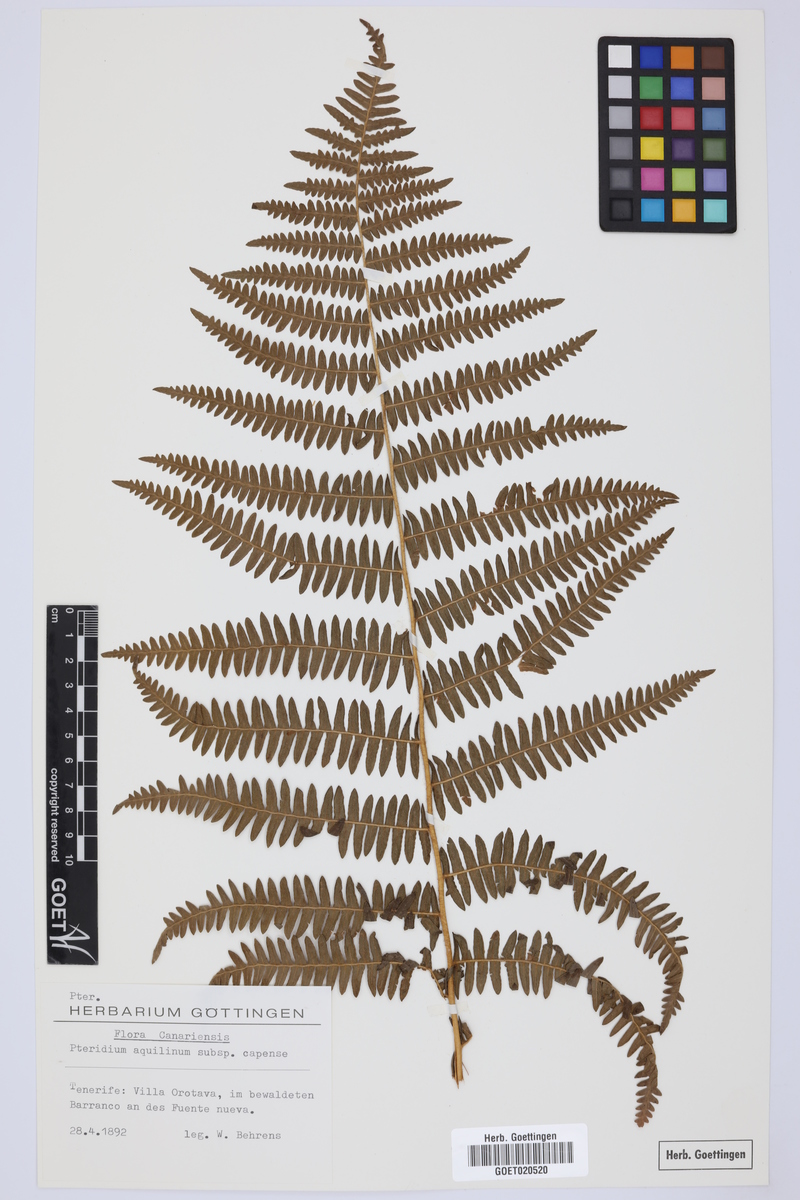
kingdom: Plantae
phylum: Tracheophyta
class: Polypodiopsida
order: Polypodiales
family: Dennstaedtiaceae
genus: Pteridium
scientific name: Pteridium aquilinum
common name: Bracken
